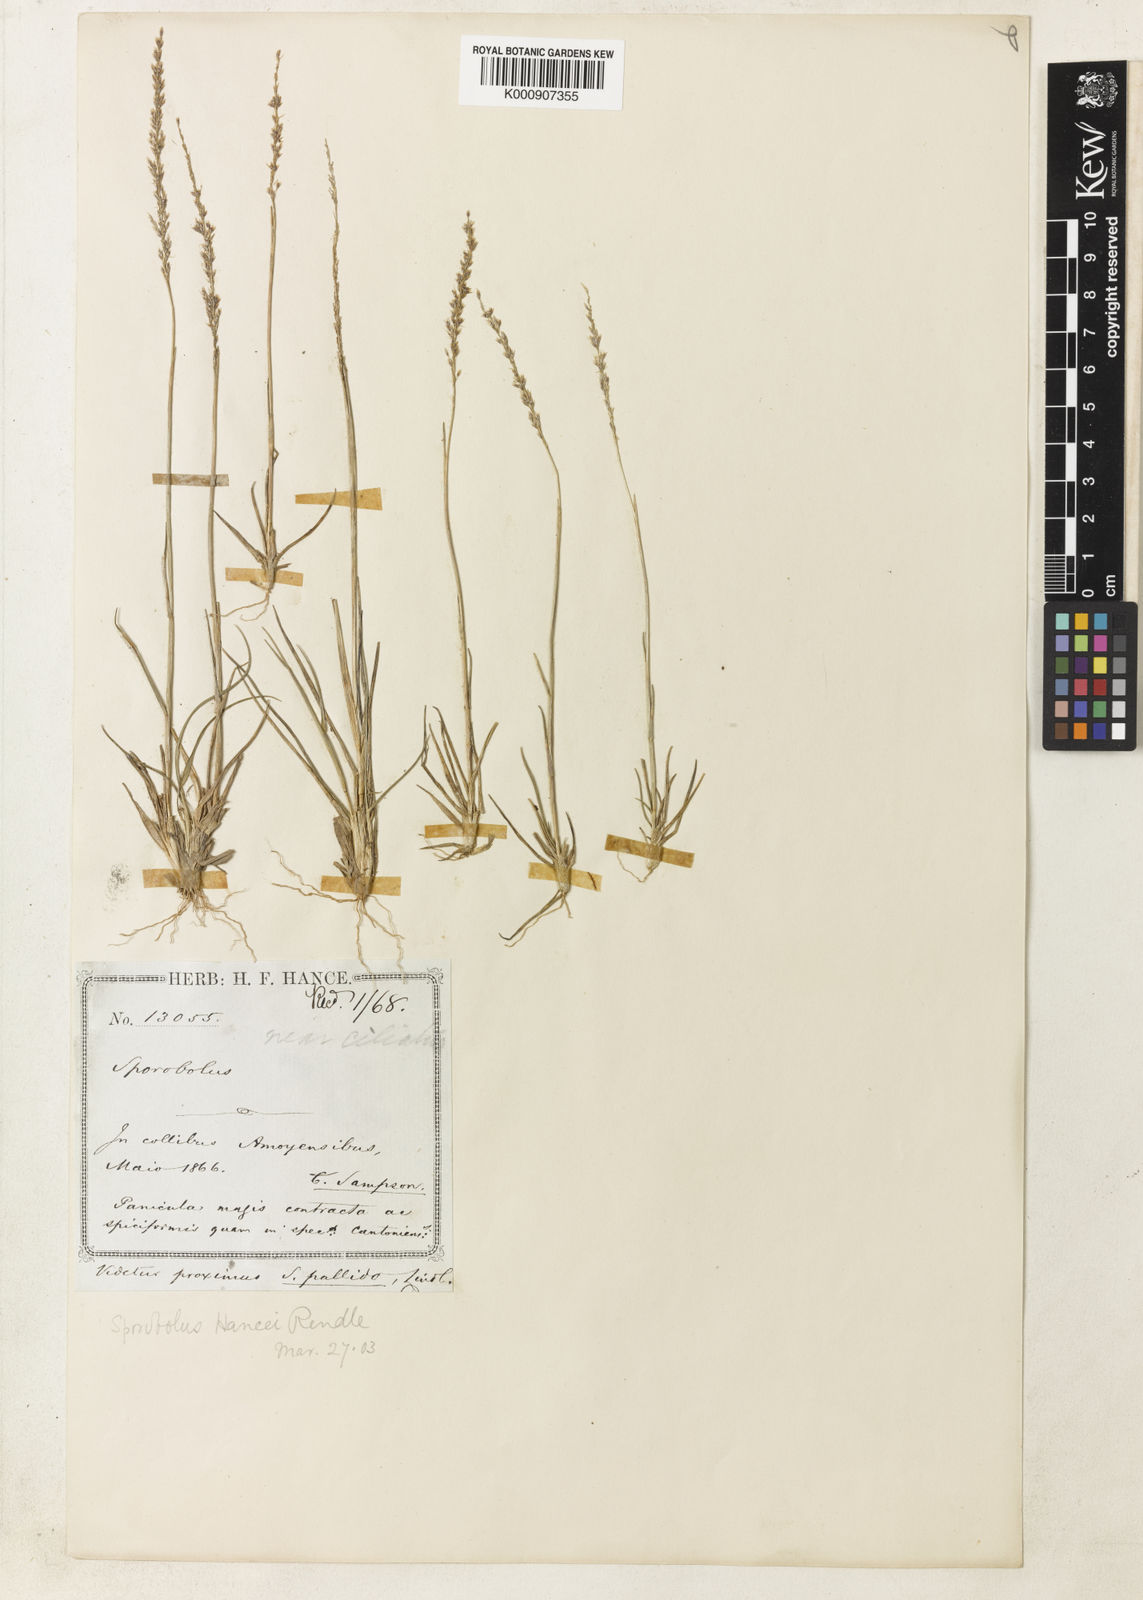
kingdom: Plantae
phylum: Tracheophyta
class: Liliopsida
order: Poales
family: Poaceae
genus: Sporobolus
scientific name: Sporobolus hancei
